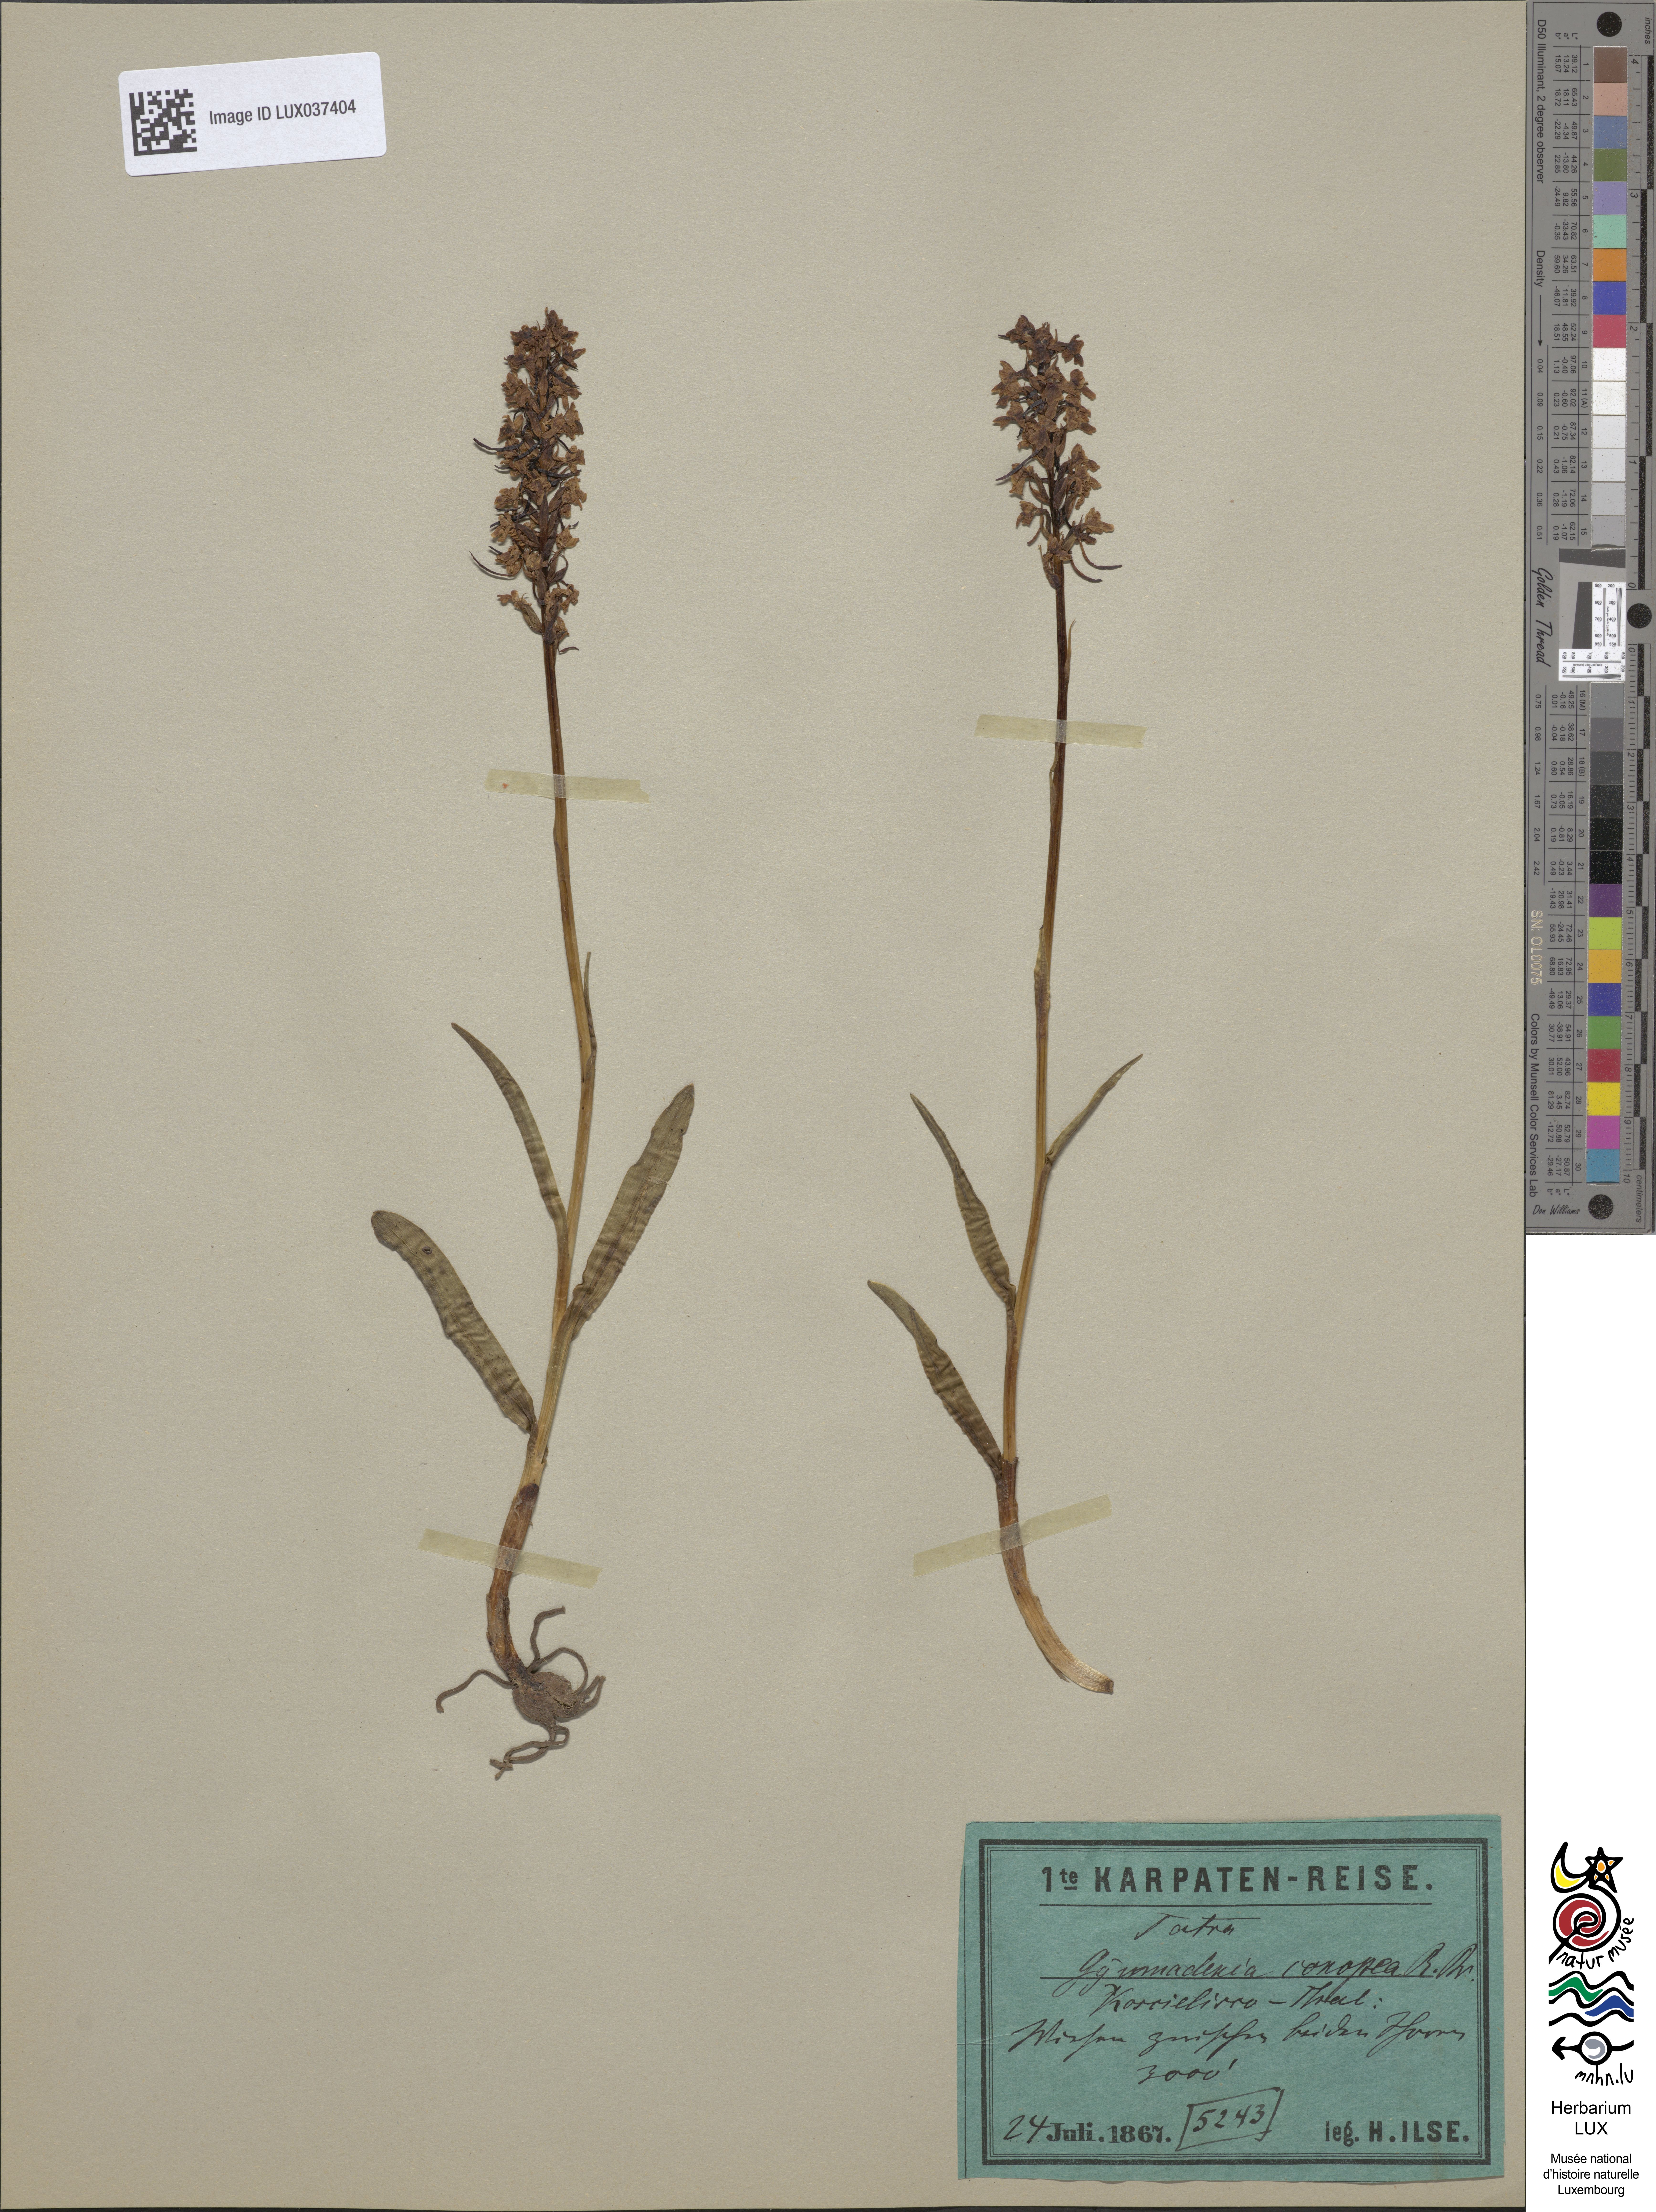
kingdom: Plantae
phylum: Tracheophyta
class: Liliopsida
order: Asparagales
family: Orchidaceae
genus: Gymnadenia
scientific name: Gymnadenia conopsea
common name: Fragrant orchid
